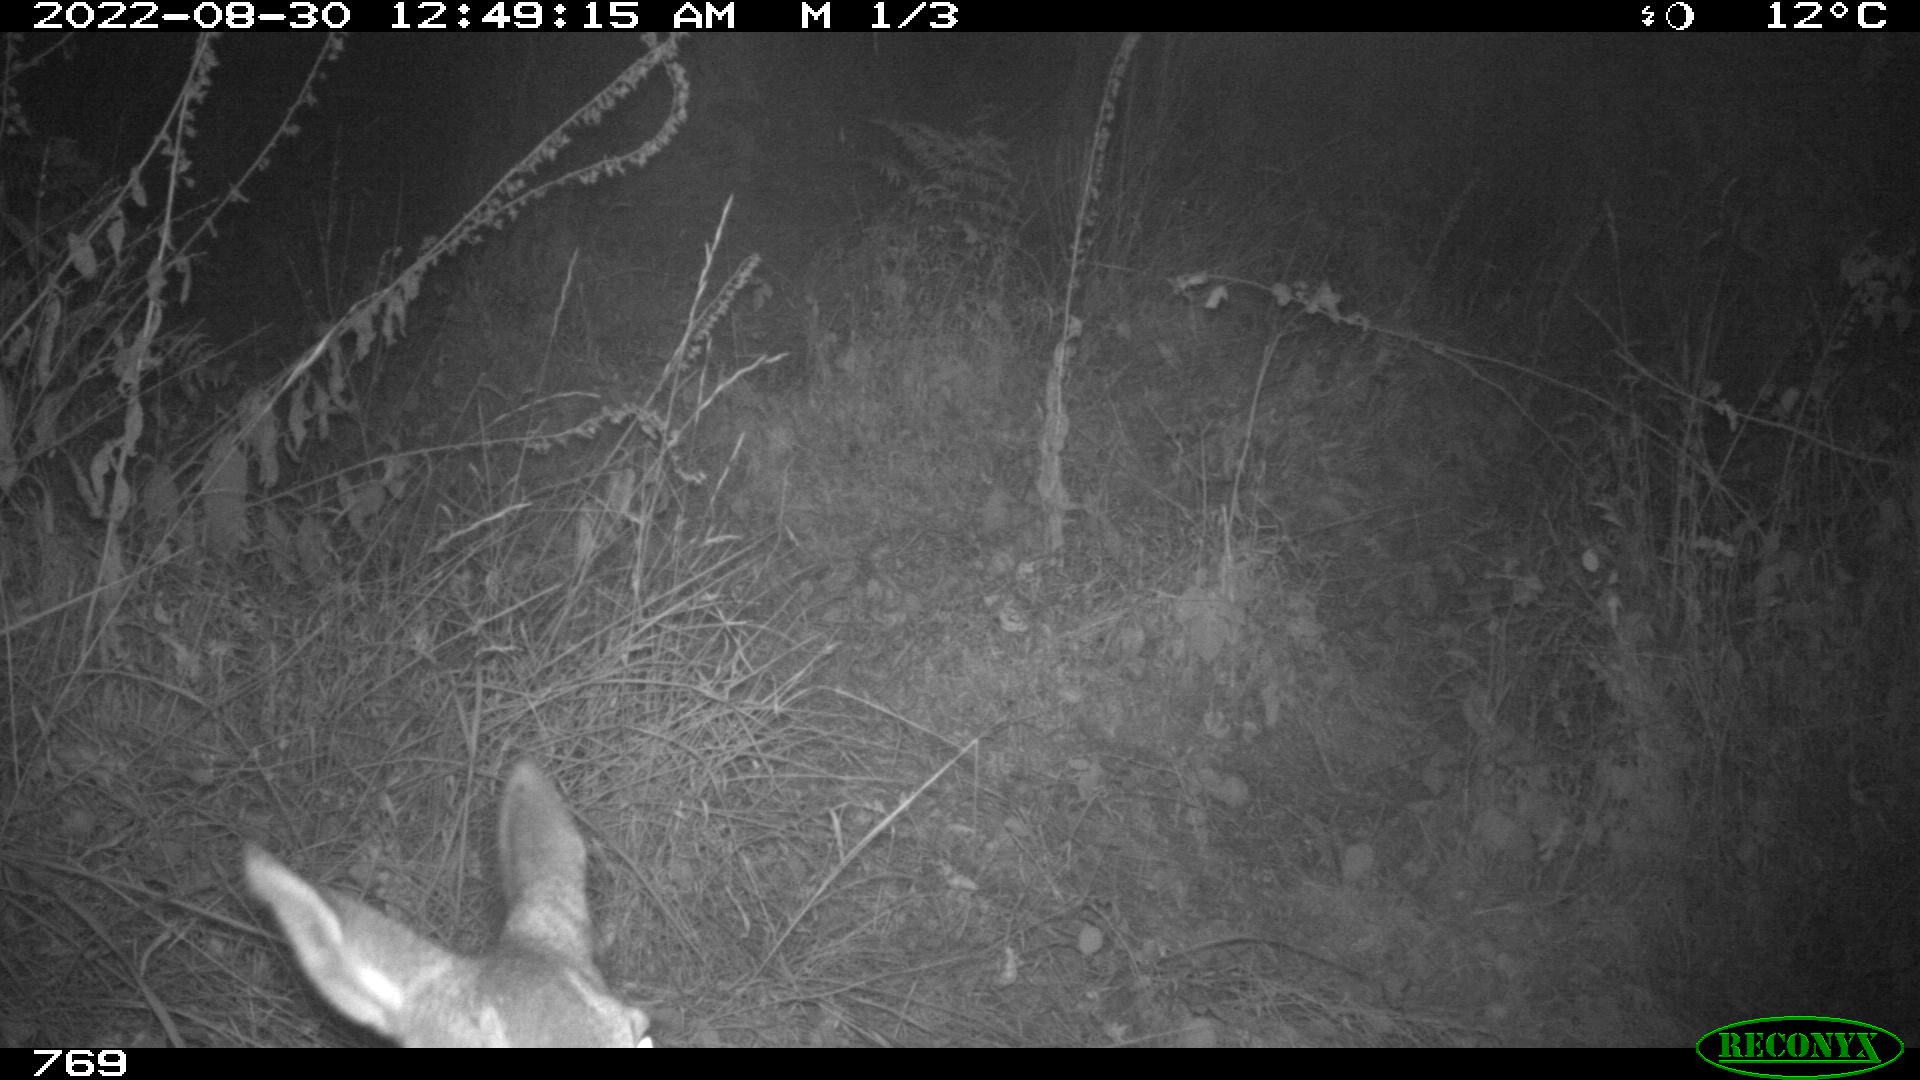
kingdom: Animalia
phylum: Chordata
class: Mammalia
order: Artiodactyla
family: Cervidae
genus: Capreolus
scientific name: Capreolus capreolus
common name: Western roe deer
